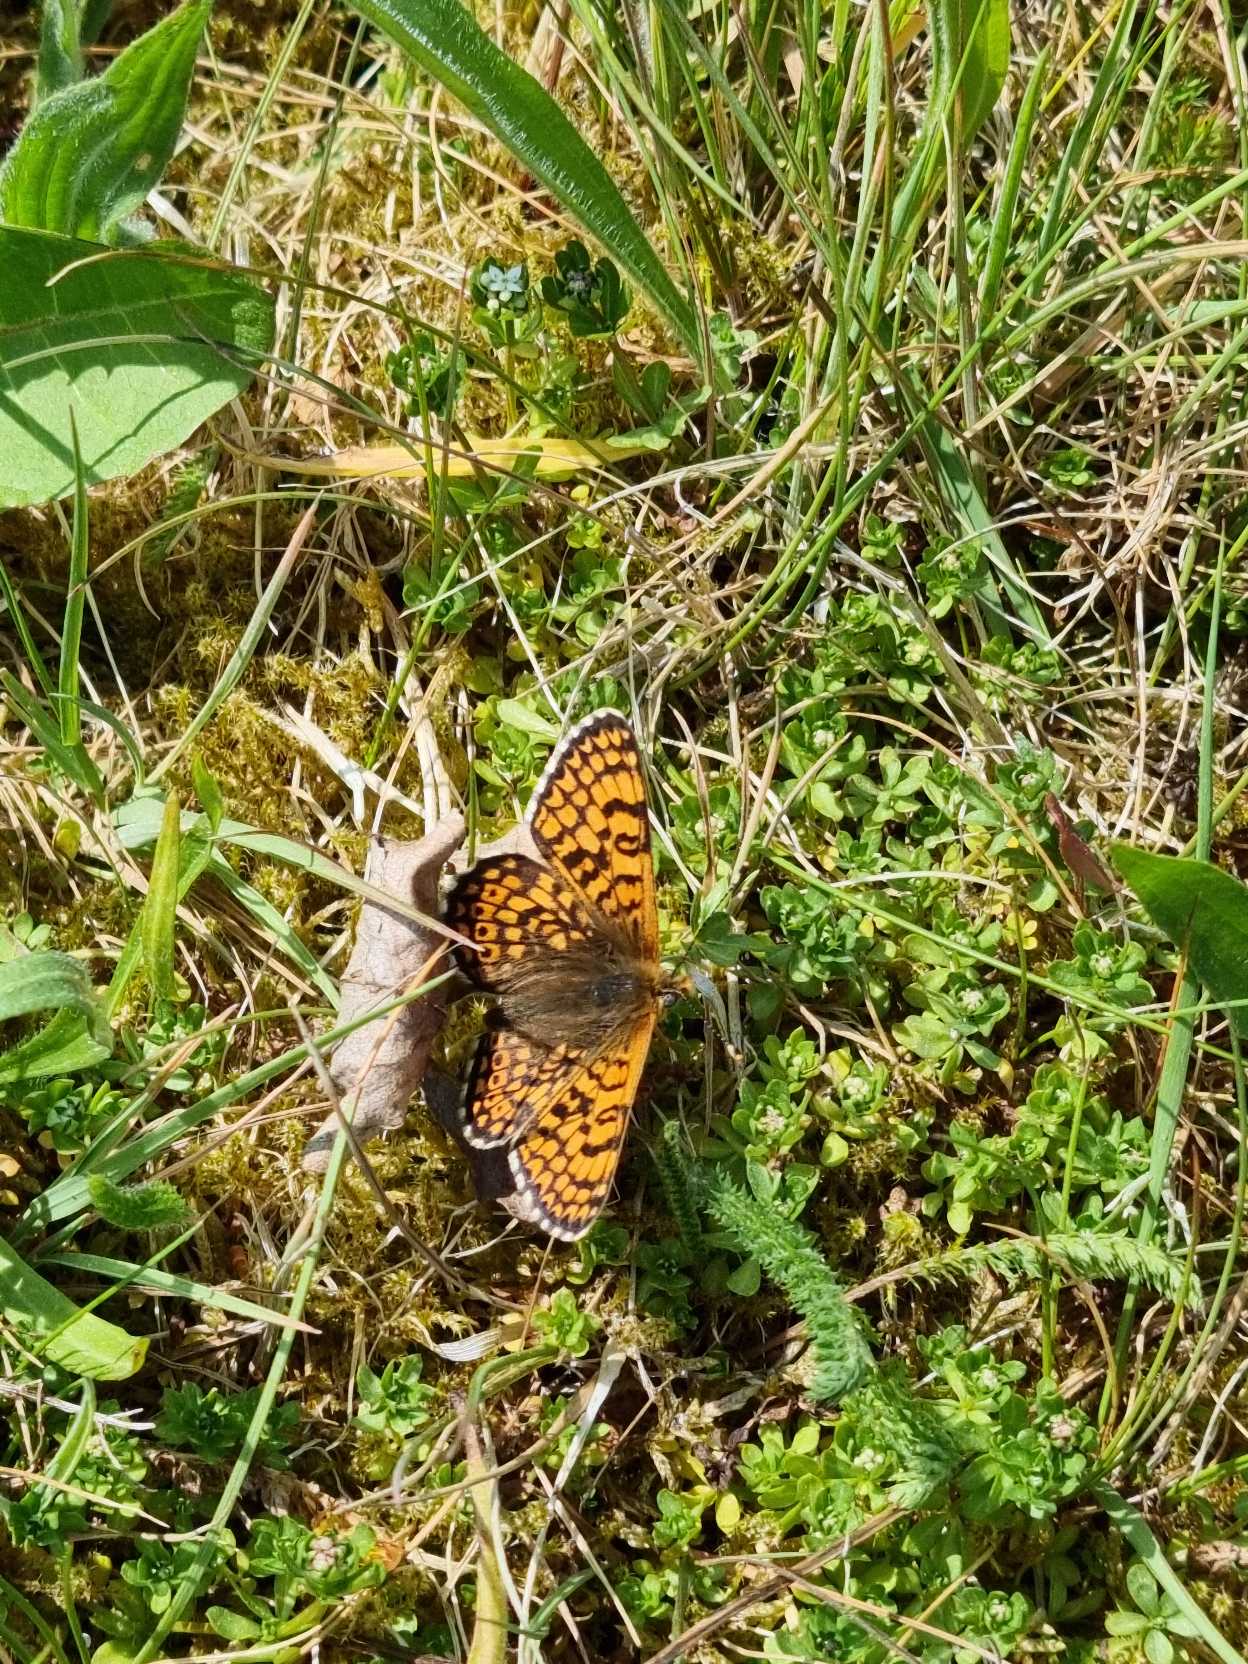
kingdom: Animalia
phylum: Arthropoda
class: Insecta
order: Lepidoptera
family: Nymphalidae
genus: Melitaea
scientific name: Melitaea cinxia
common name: Okkergul pletvinge
